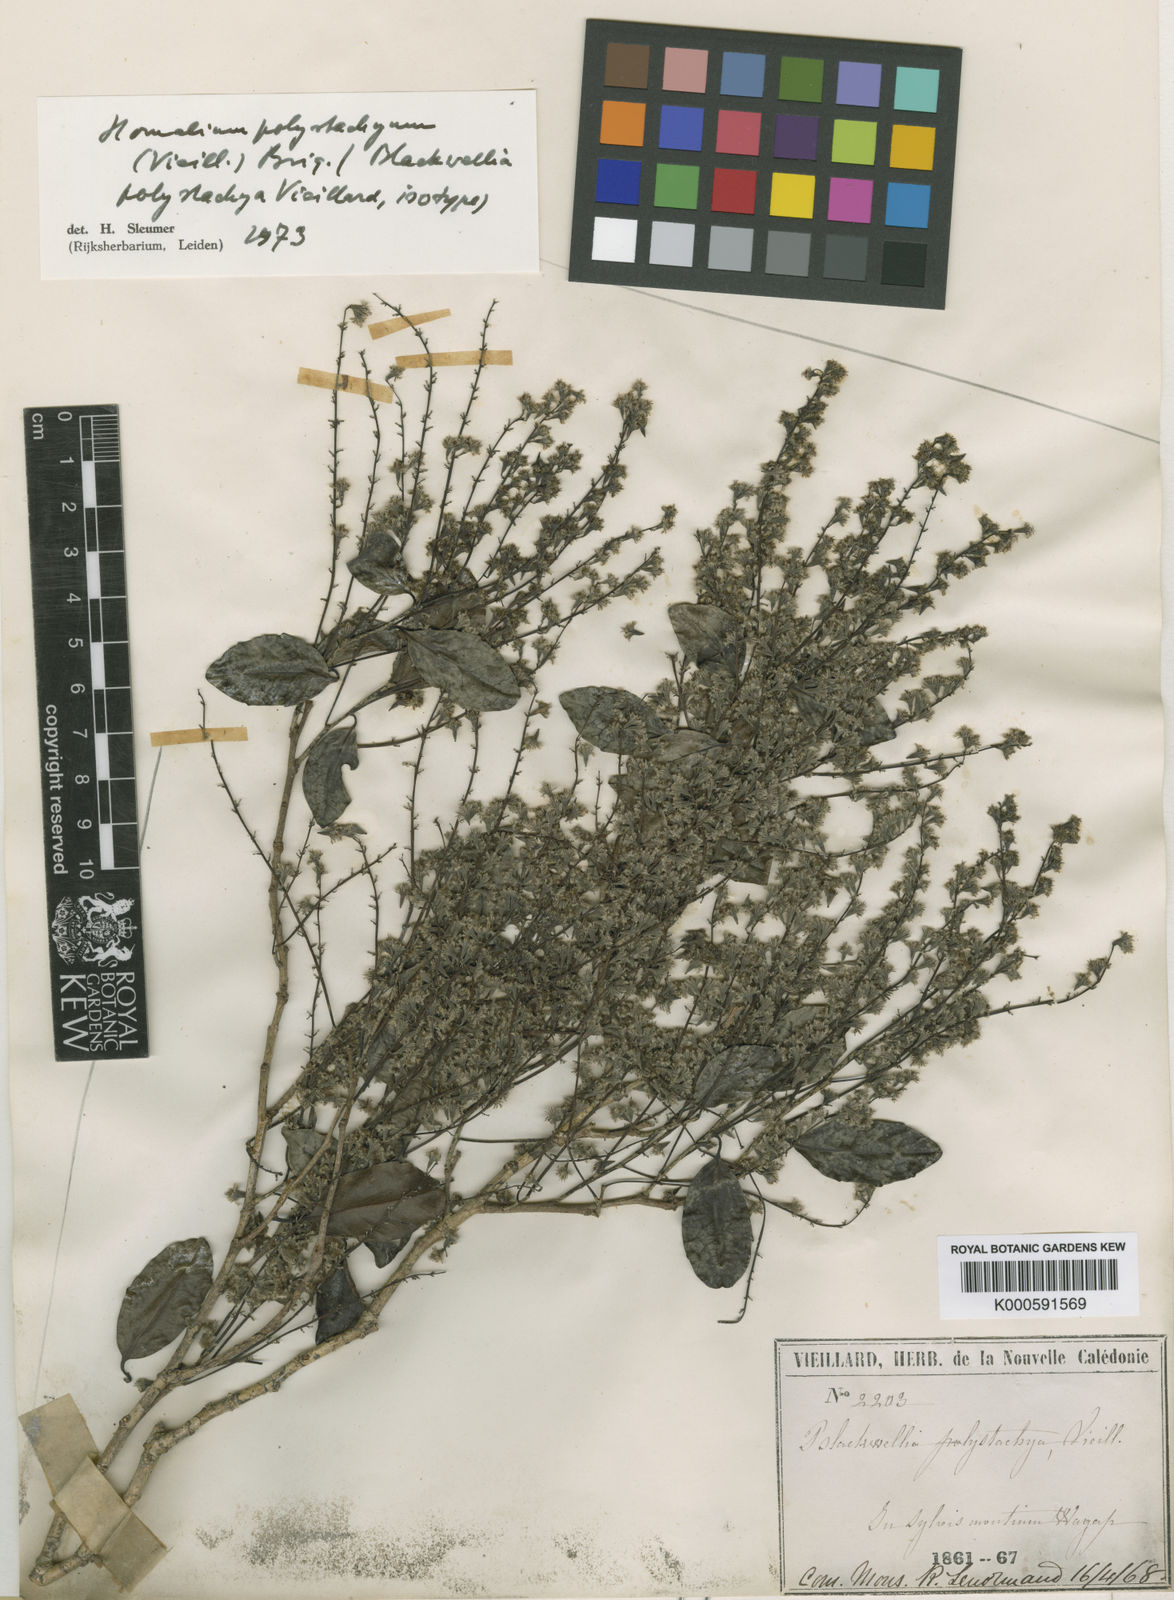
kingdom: Plantae
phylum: Tracheophyta
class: Magnoliopsida
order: Malpighiales
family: Salicaceae
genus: Homalium
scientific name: Homalium polystachyum
